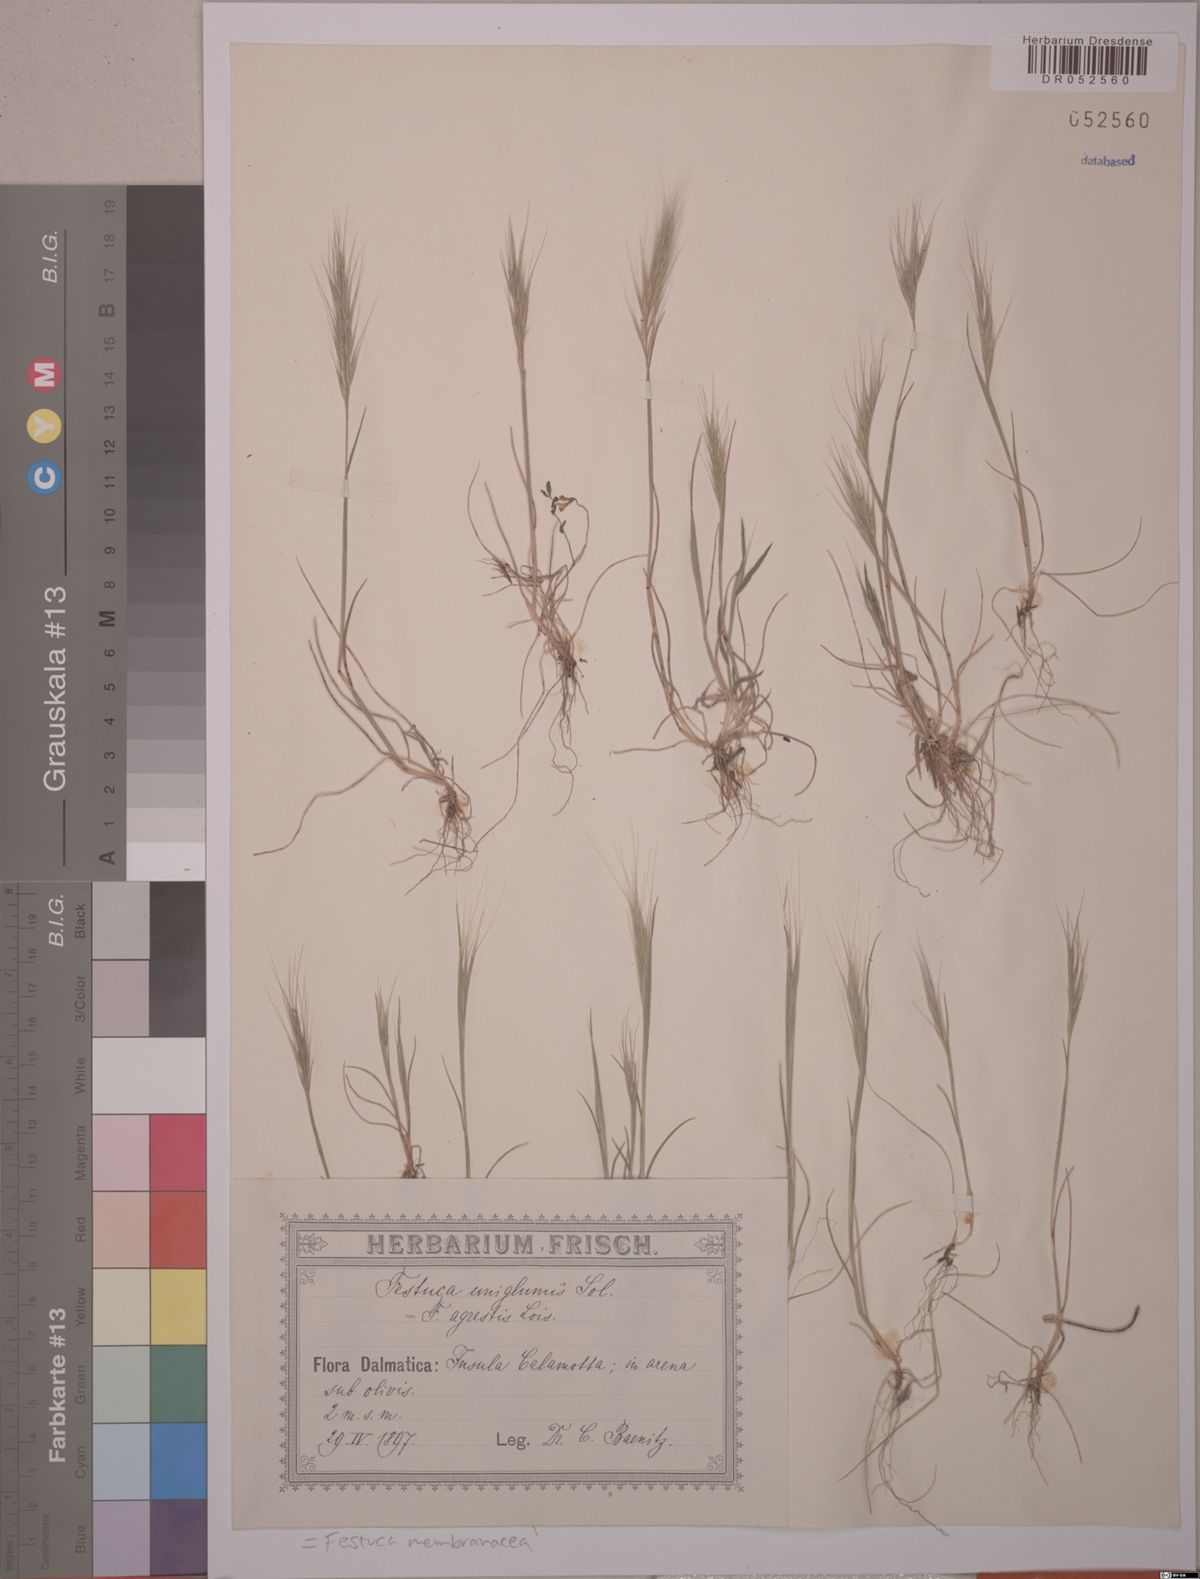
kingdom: Plantae
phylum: Tracheophyta
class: Liliopsida
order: Poales
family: Poaceae
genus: Festuca
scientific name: Festuca membranacea
